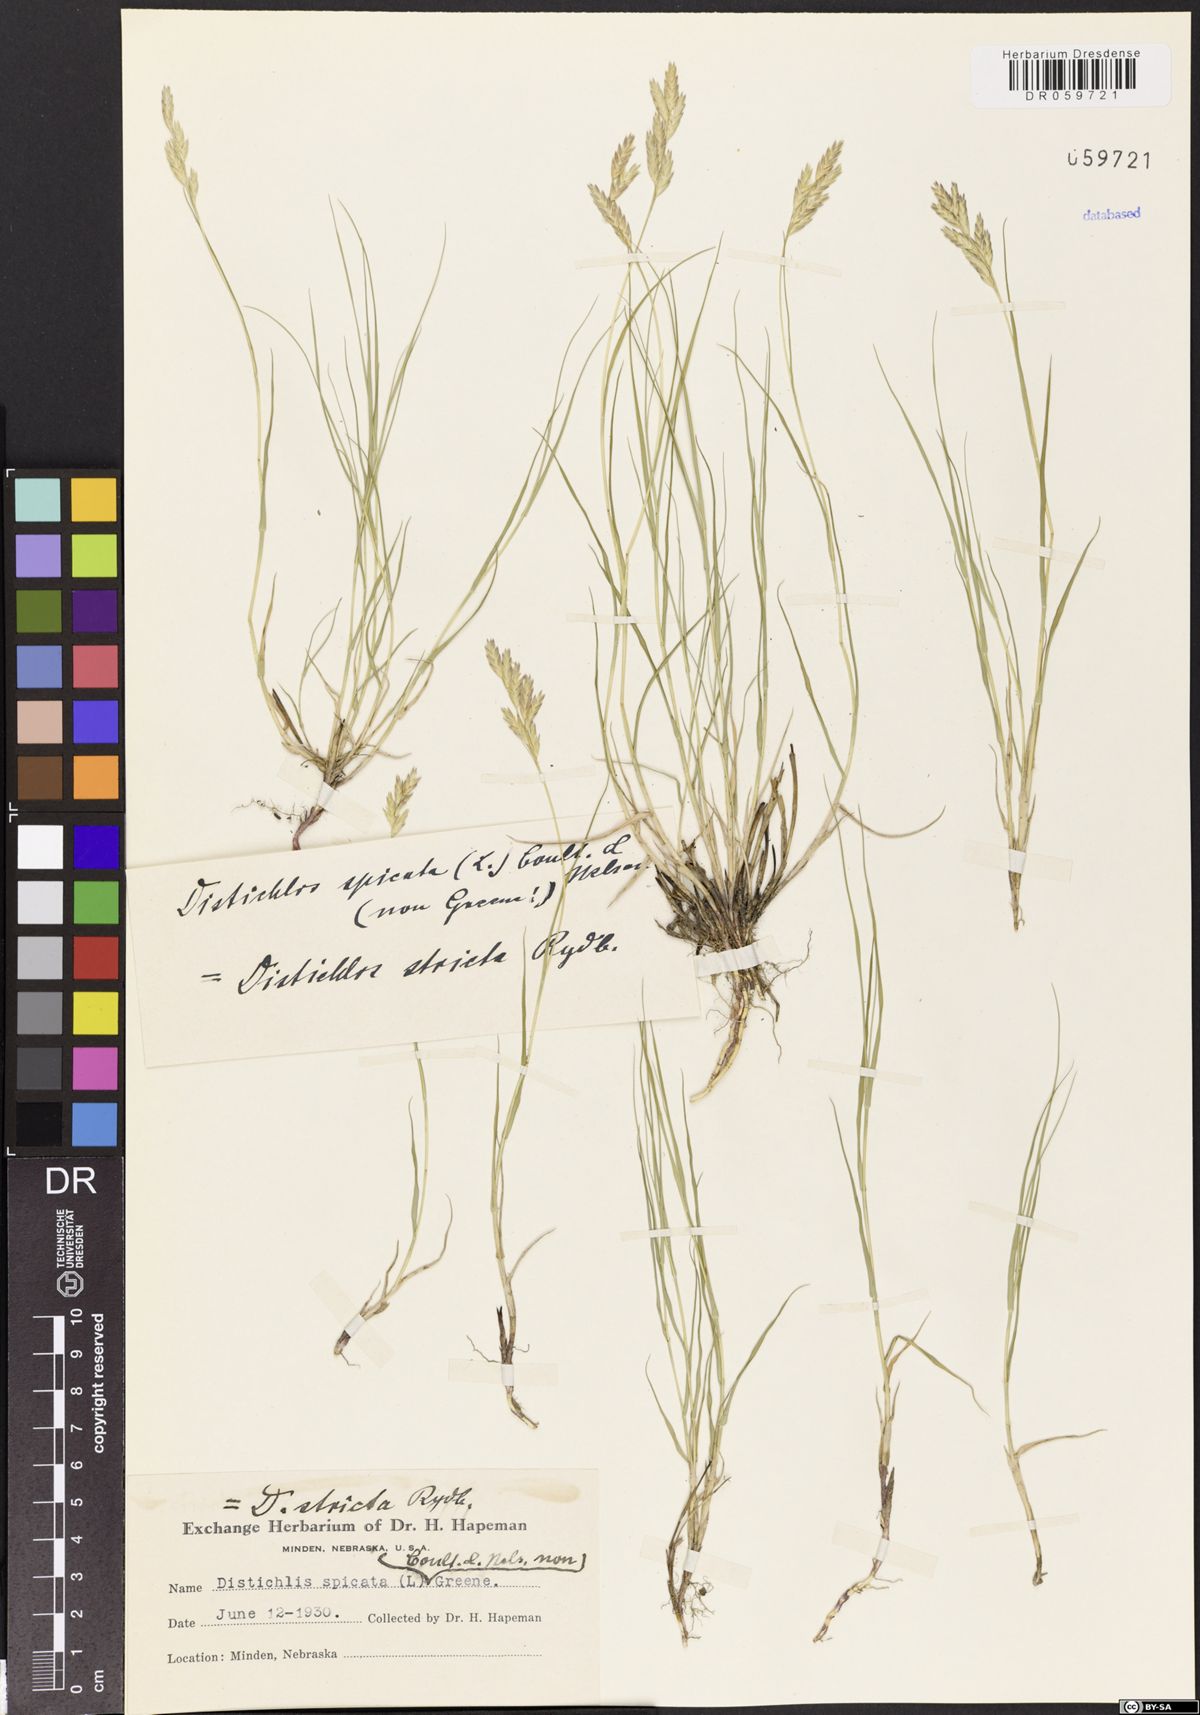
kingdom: Plantae
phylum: Tracheophyta
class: Liliopsida
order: Poales
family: Poaceae
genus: Distichlis
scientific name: Distichlis spicata
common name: Saltgrass
